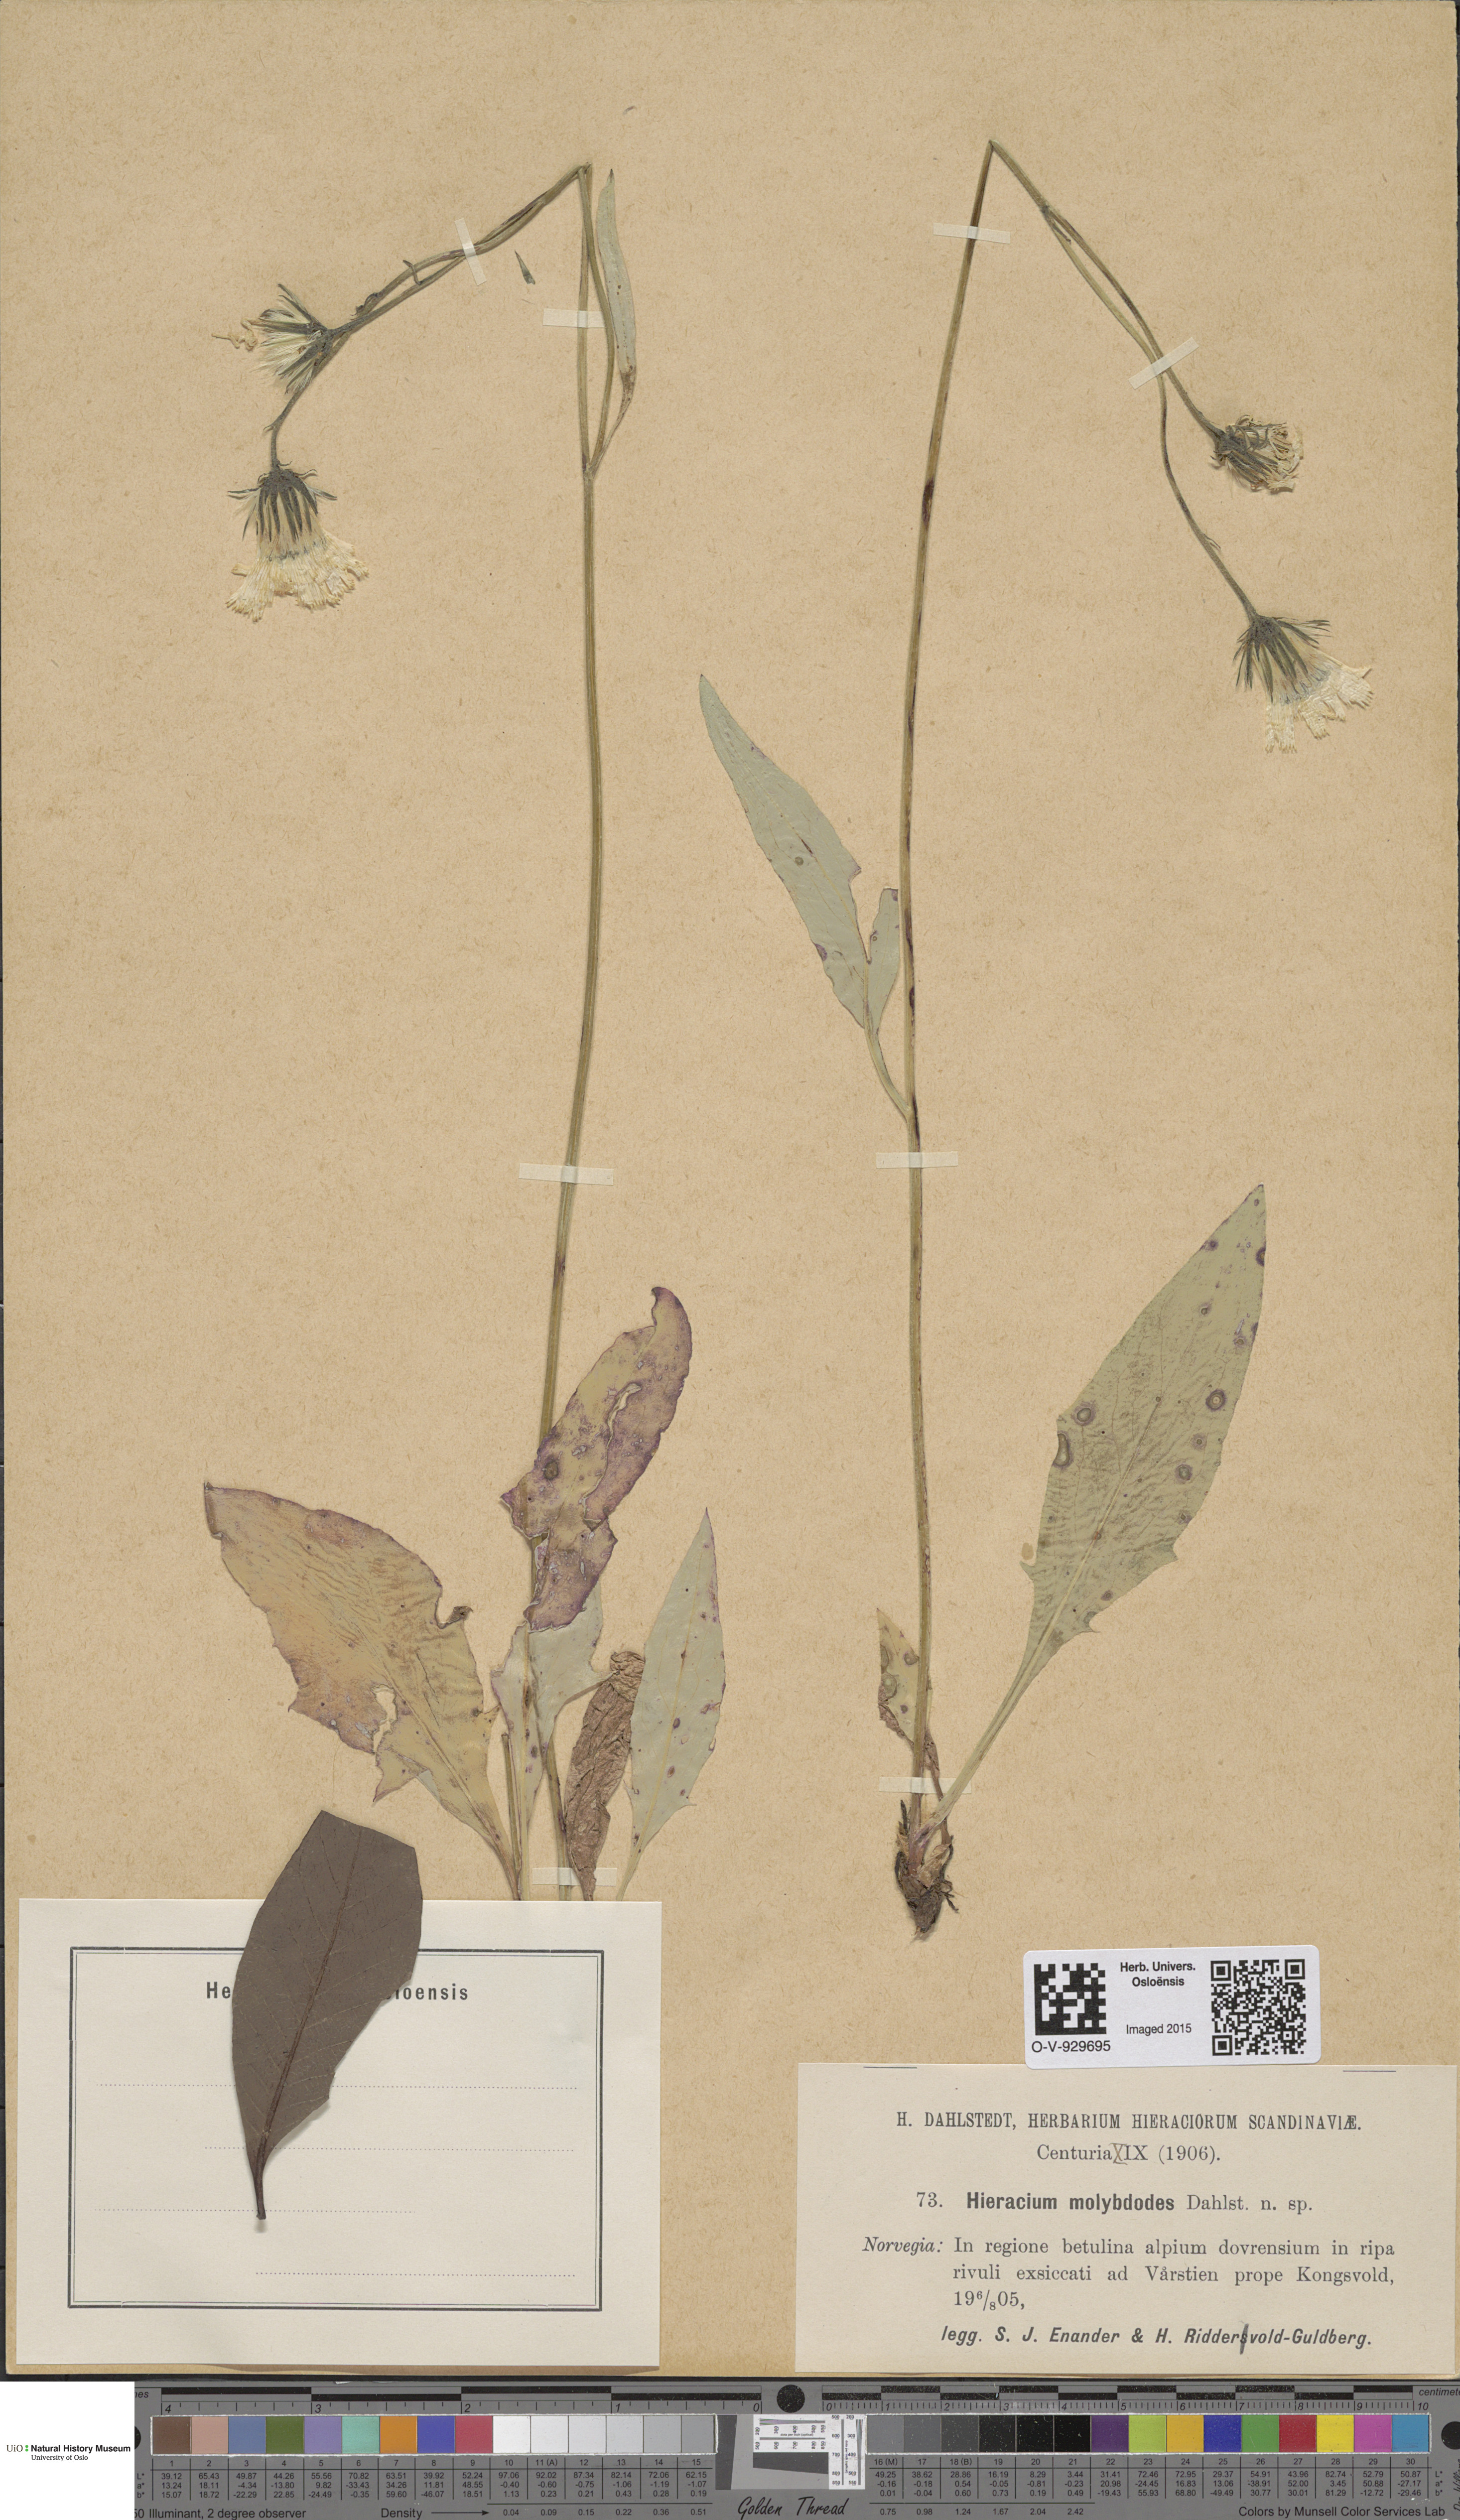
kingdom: Plantae
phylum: Tracheophyta
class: Magnoliopsida
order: Asterales
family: Asteraceae
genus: Hieracium
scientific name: Hieracium
